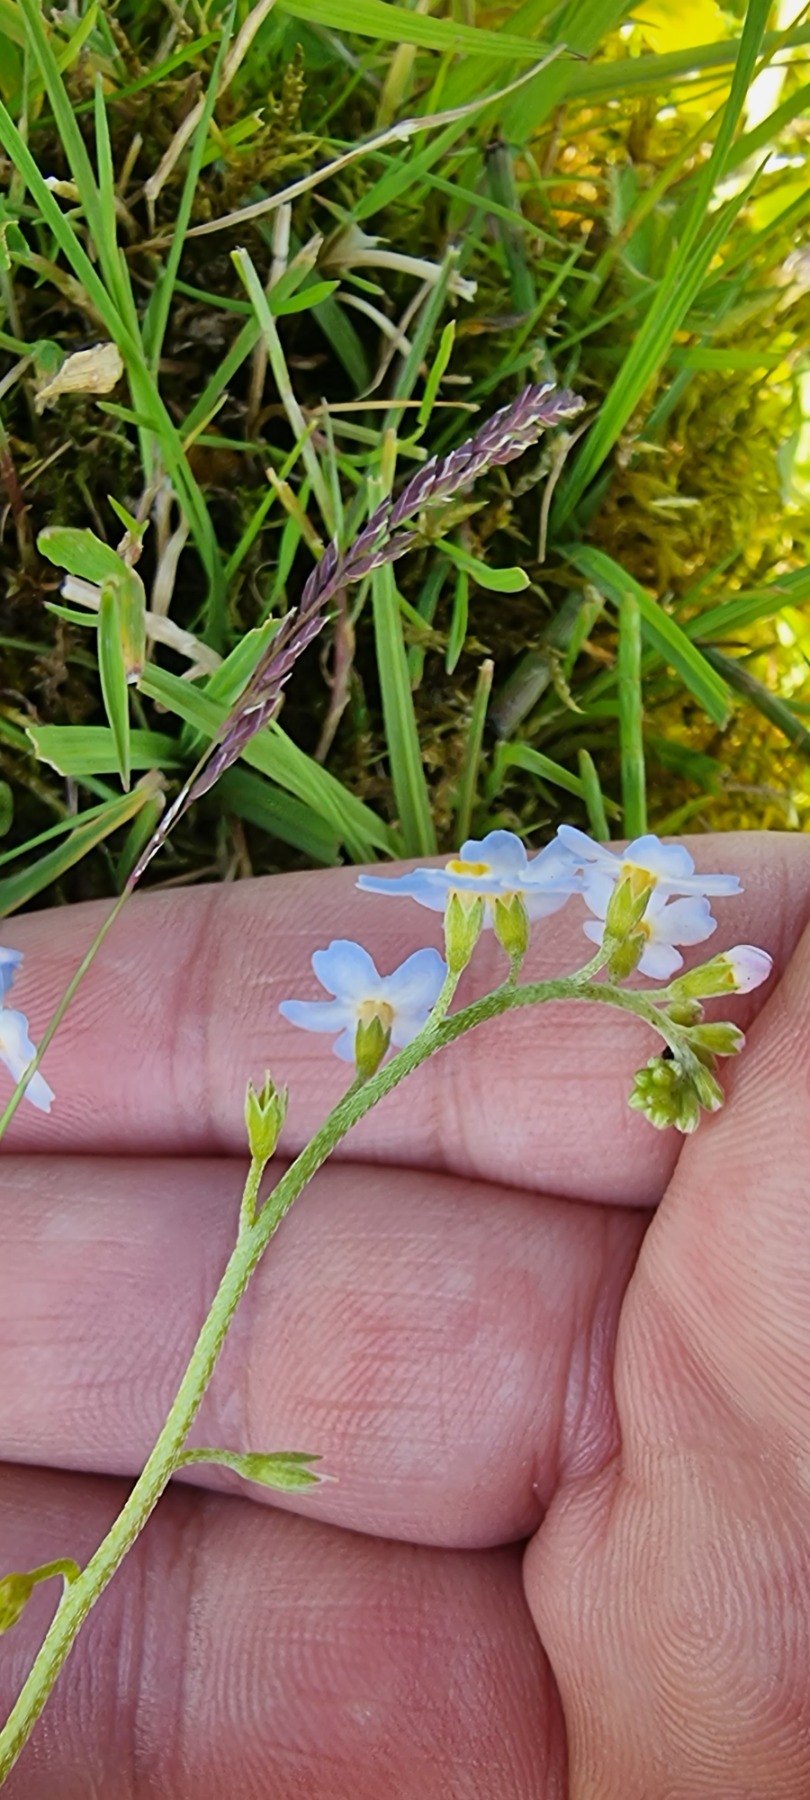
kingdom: Plantae
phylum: Tracheophyta
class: Magnoliopsida
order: Boraginales
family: Boraginaceae
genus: Myosotis
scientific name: Myosotis scorpioides
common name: Eng-forglemmigej
